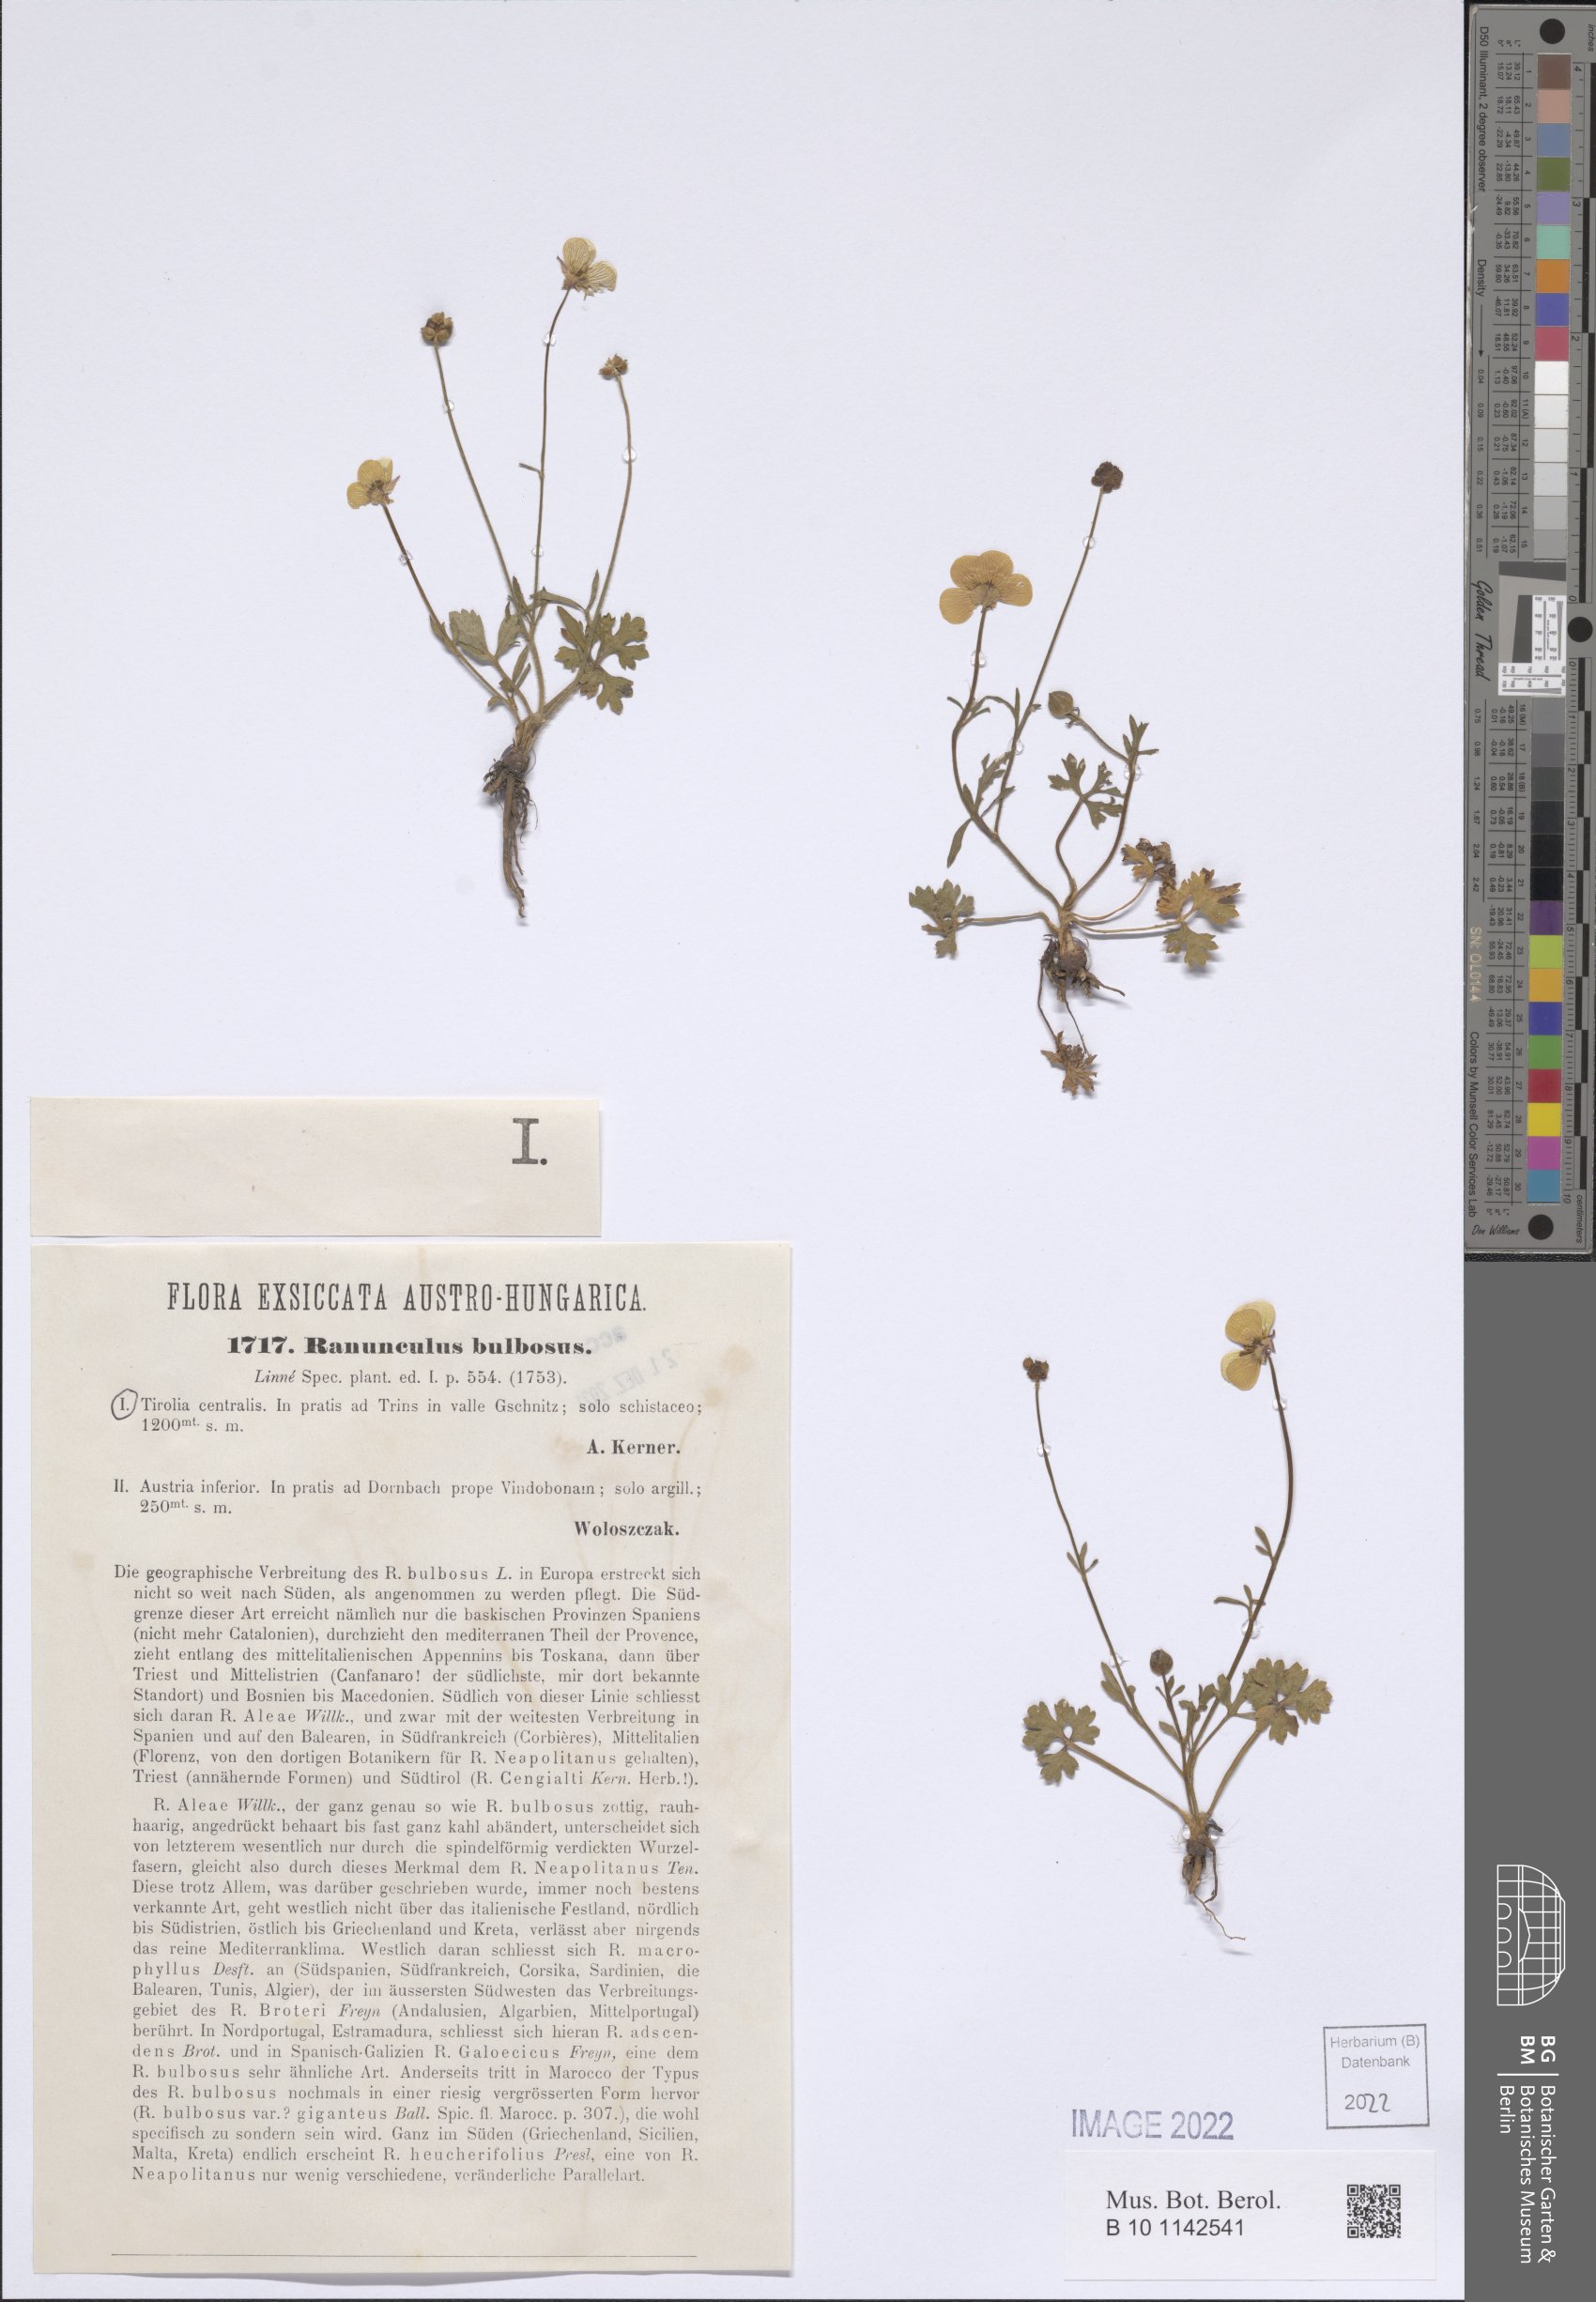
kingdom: Plantae
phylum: Tracheophyta
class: Magnoliopsida
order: Ranunculales
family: Ranunculaceae
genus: Ranunculus
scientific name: Ranunculus bulbosus
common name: Bulbous buttercup
